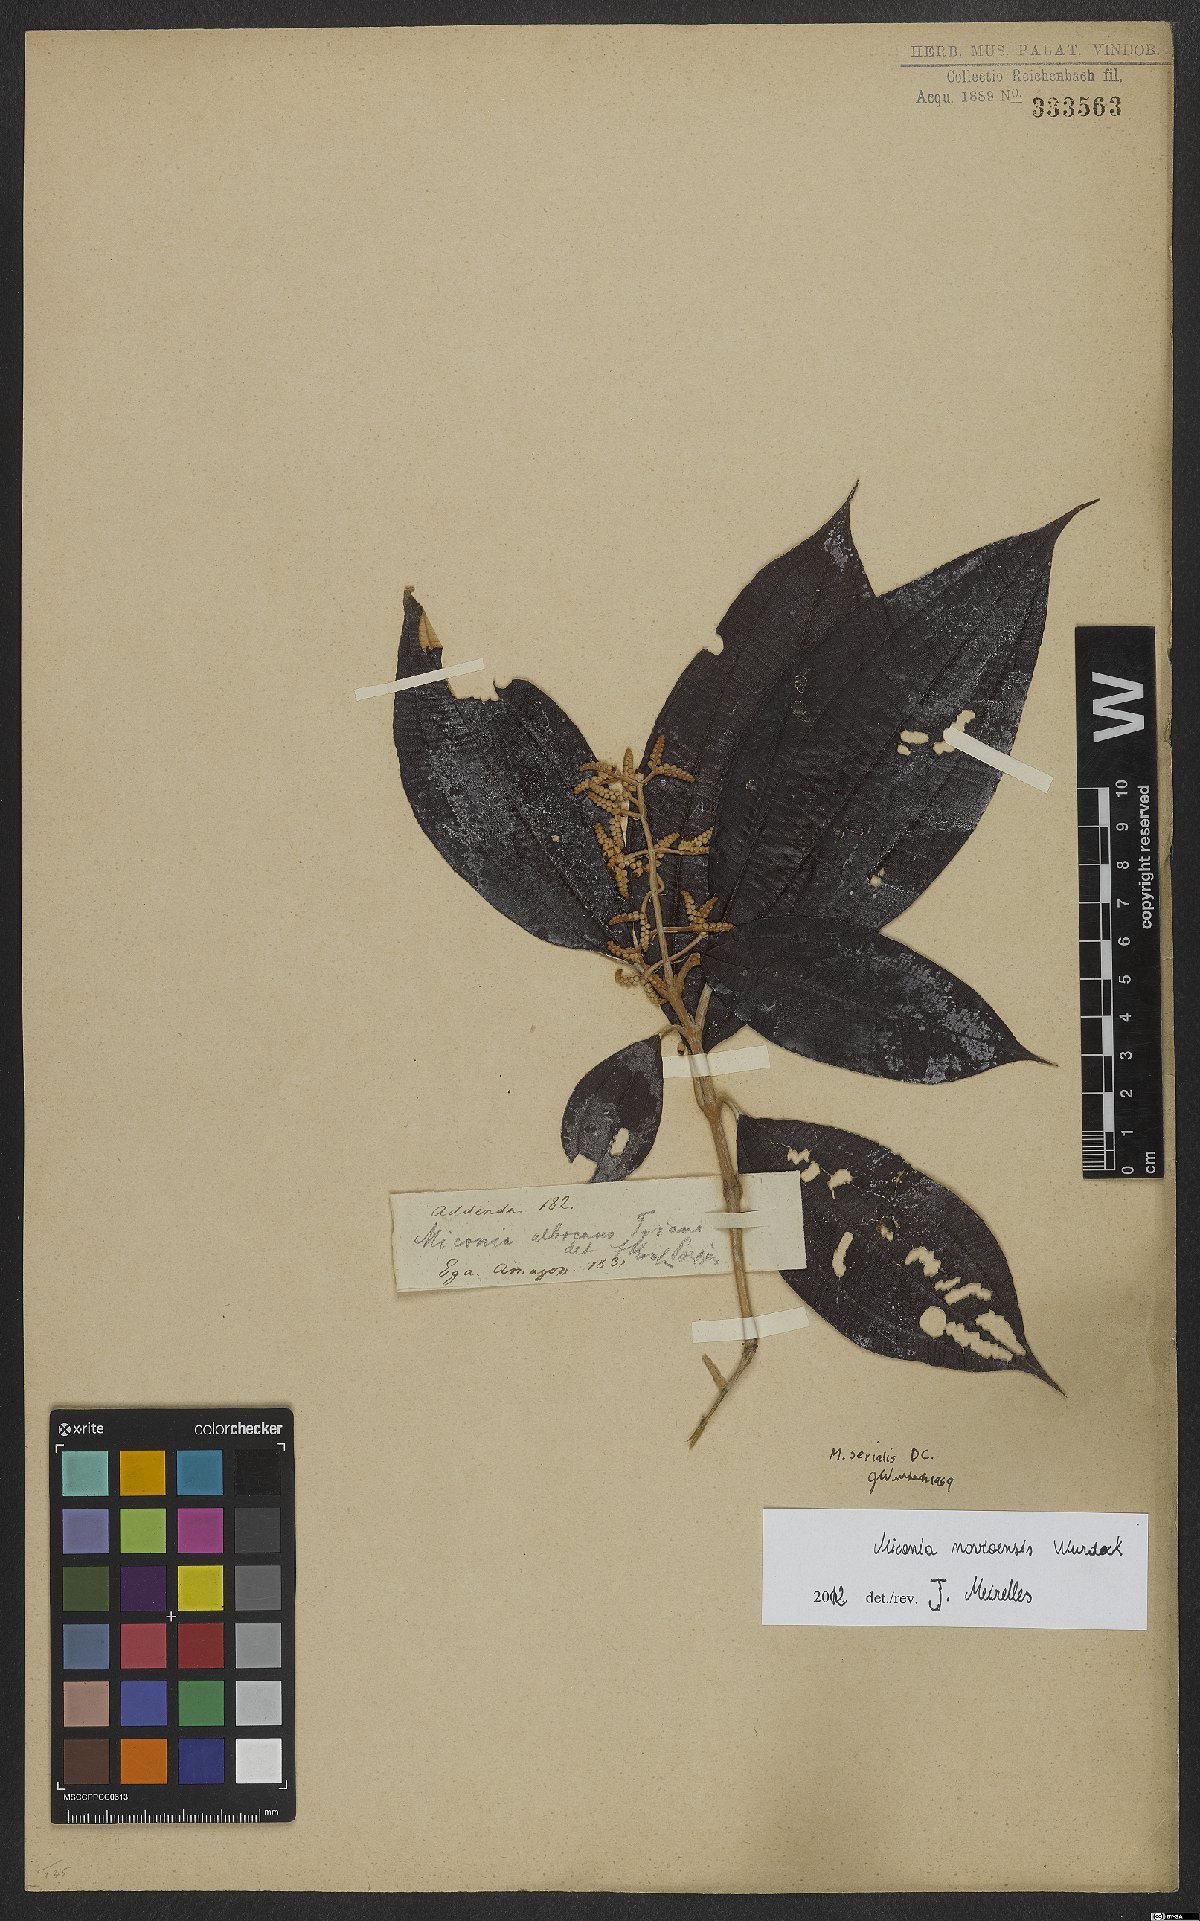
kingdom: Plantae
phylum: Tracheophyta
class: Magnoliopsida
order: Myrtales
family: Melastomataceae
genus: Miconia
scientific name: Miconia navioensis
